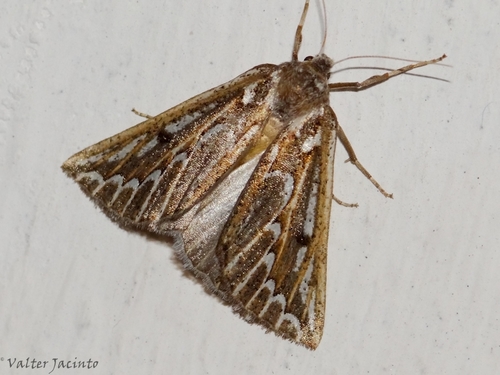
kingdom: Animalia
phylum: Arthropoda
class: Insecta
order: Lepidoptera
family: Geometridae
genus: Compsoptera
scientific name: Compsoptera jourdanaria
